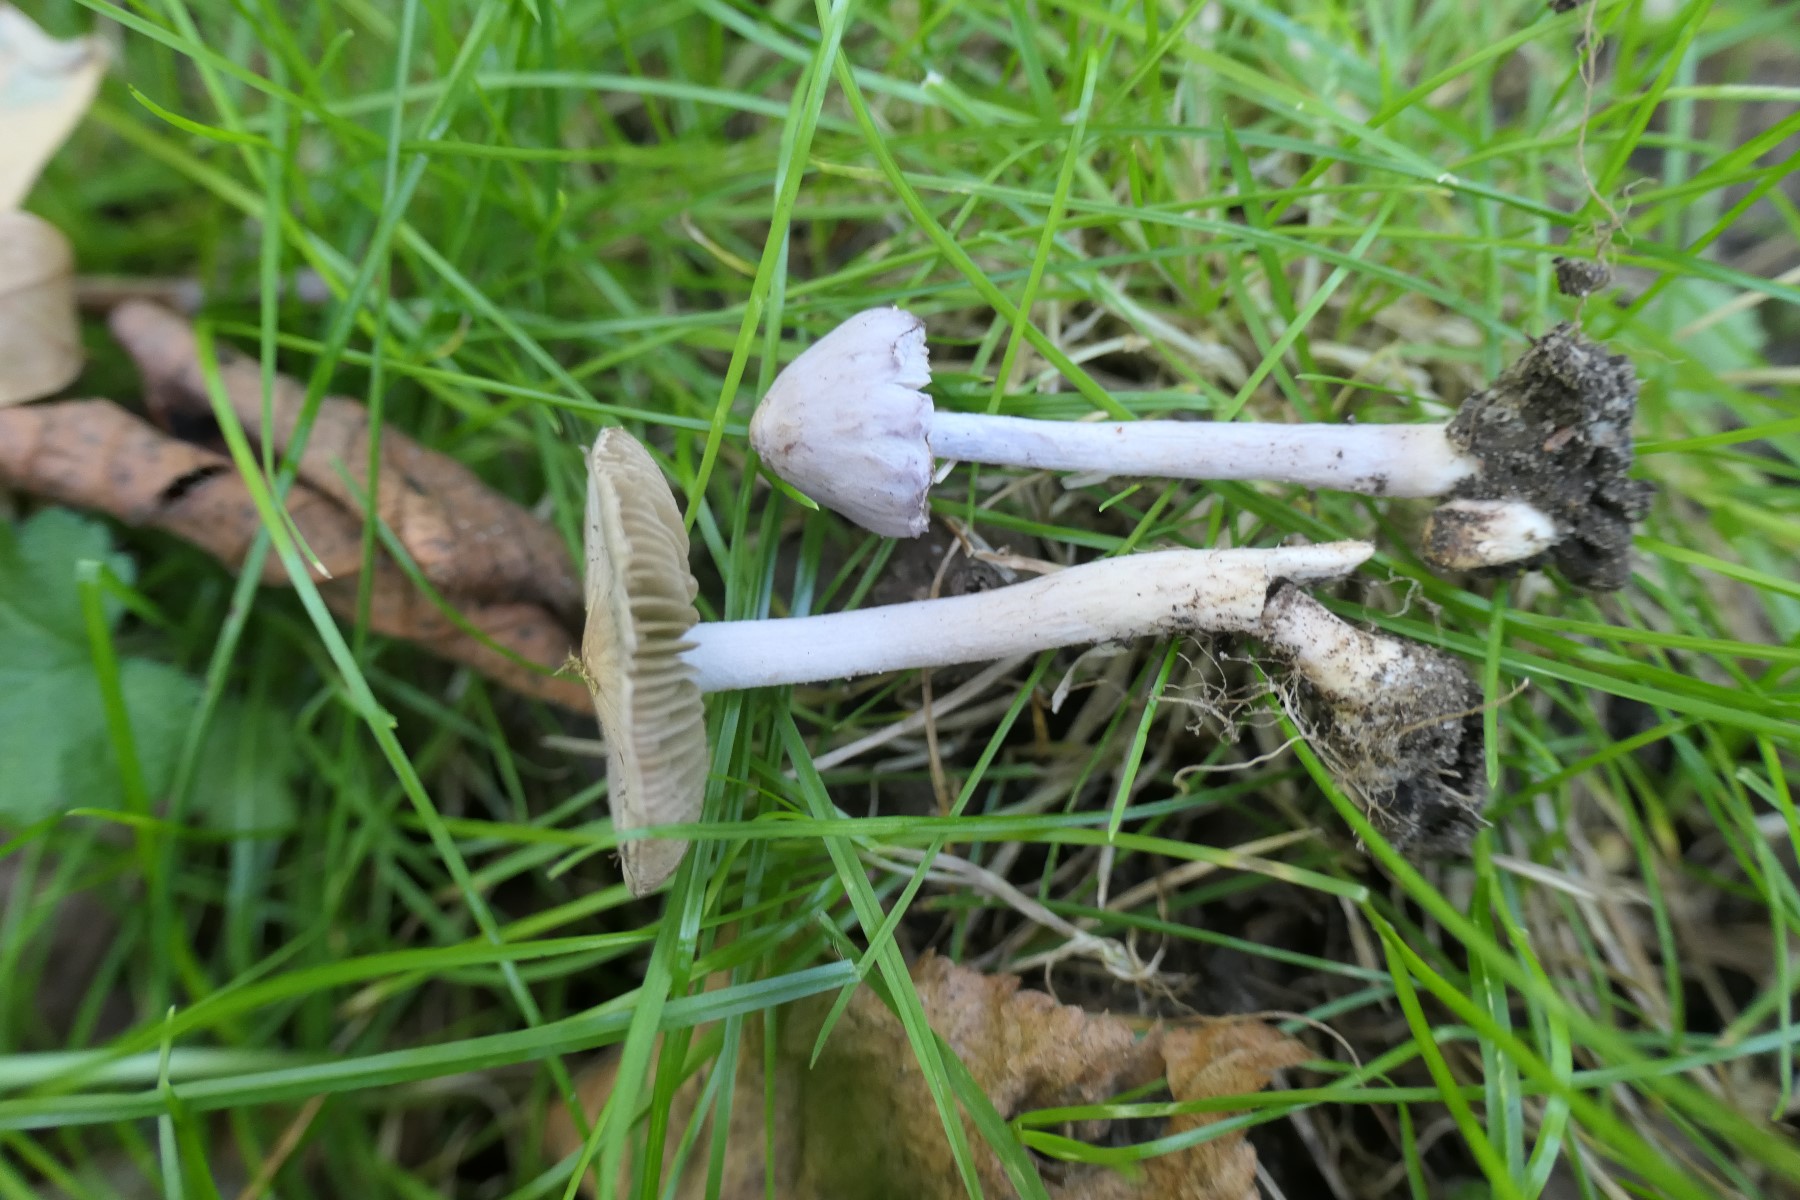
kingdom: Fungi
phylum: Basidiomycota
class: Agaricomycetes
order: Agaricales
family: Inocybaceae
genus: Inocybe
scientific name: Inocybe geophylla
